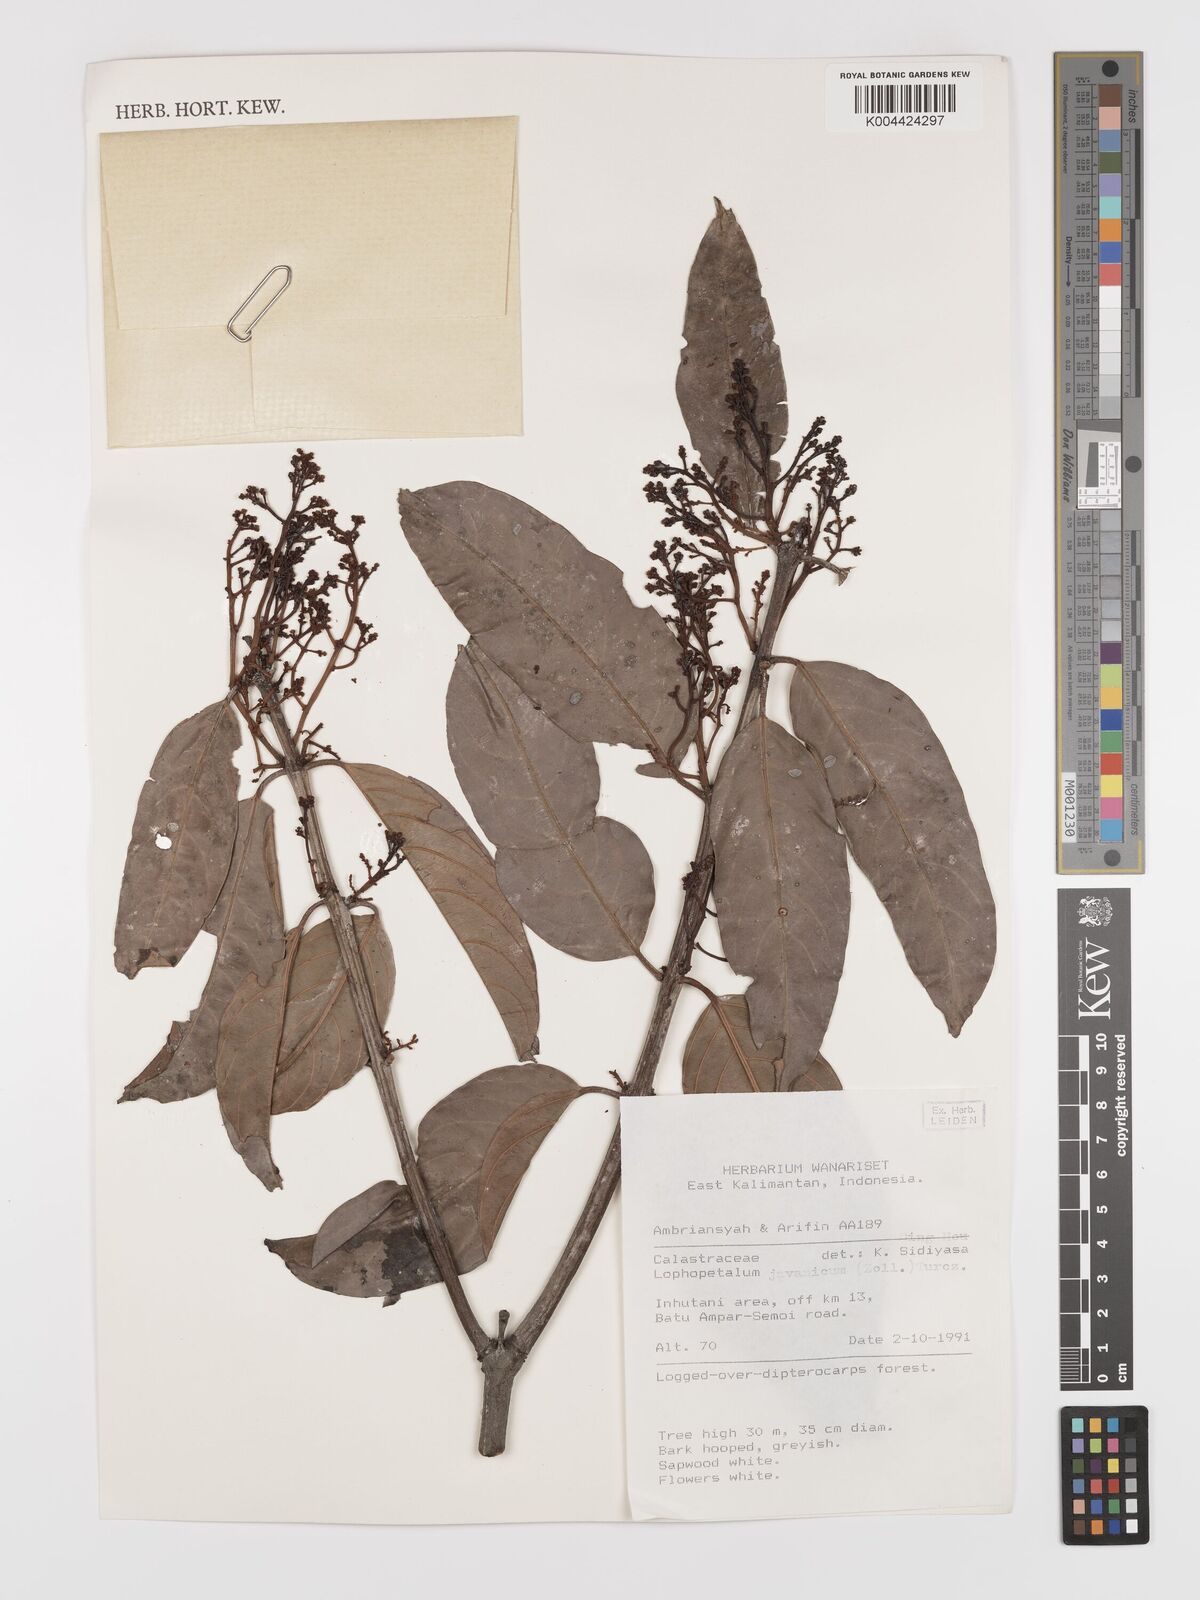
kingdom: Plantae
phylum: Tracheophyta
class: Magnoliopsida
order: Celastrales
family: Celastraceae
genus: Lophopetalum
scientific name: Lophopetalum javanicum
